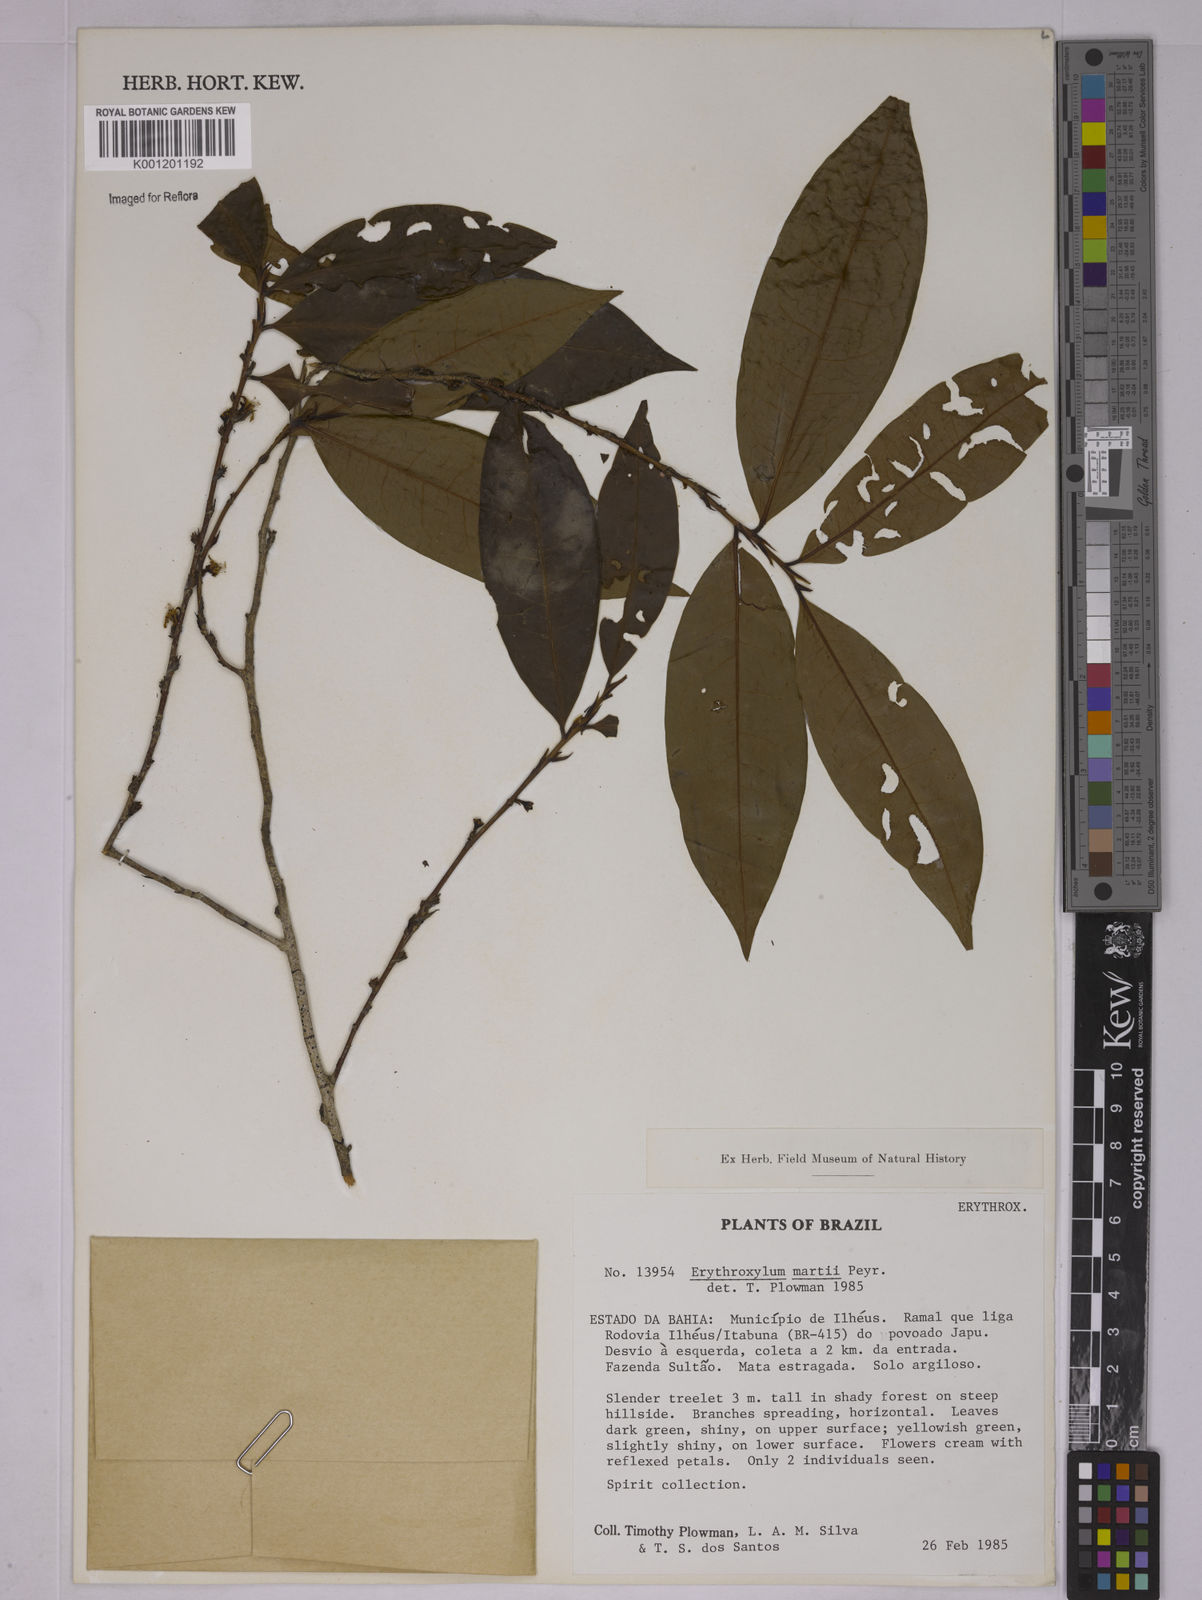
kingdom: Plantae
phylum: Tracheophyta
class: Magnoliopsida
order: Malpighiales
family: Erythroxylaceae
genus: Erythroxylum
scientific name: Erythroxylum martii
